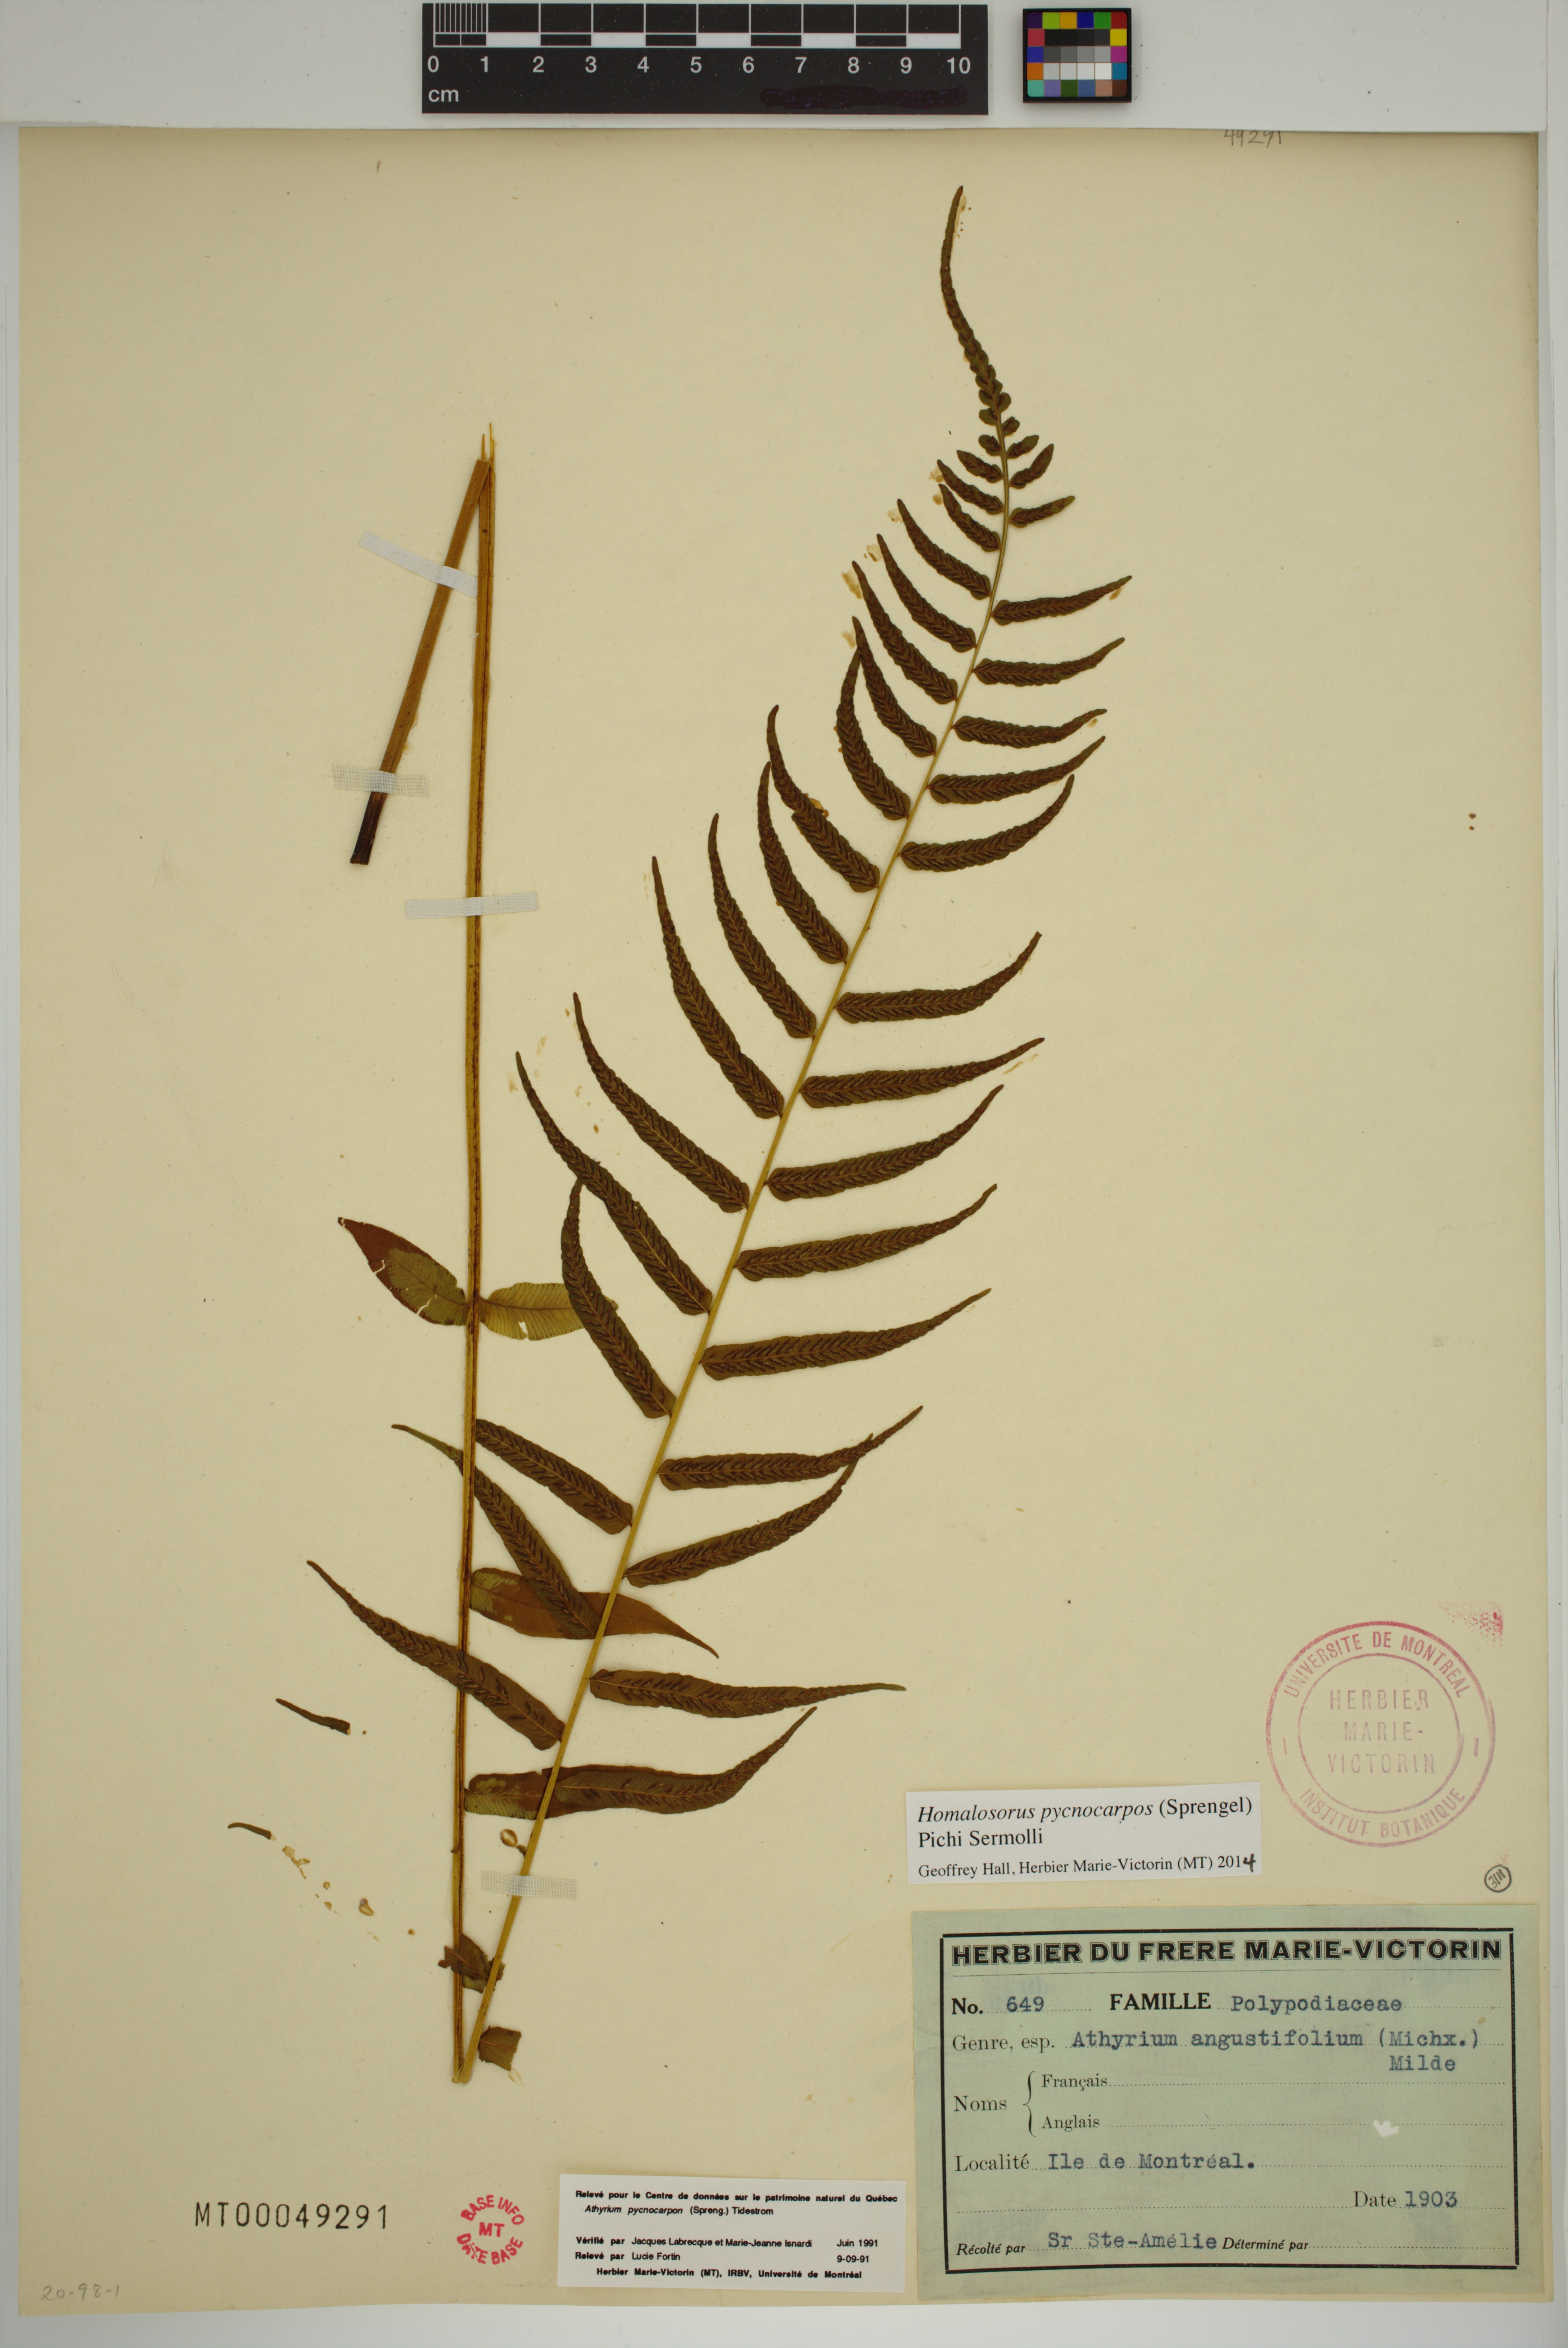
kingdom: Plantae
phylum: Tracheophyta
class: Polypodiopsida
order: Polypodiales
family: Diplaziopsidaceae
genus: Homalosorus
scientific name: Homalosorus pycnocarpos
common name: Glade fern
